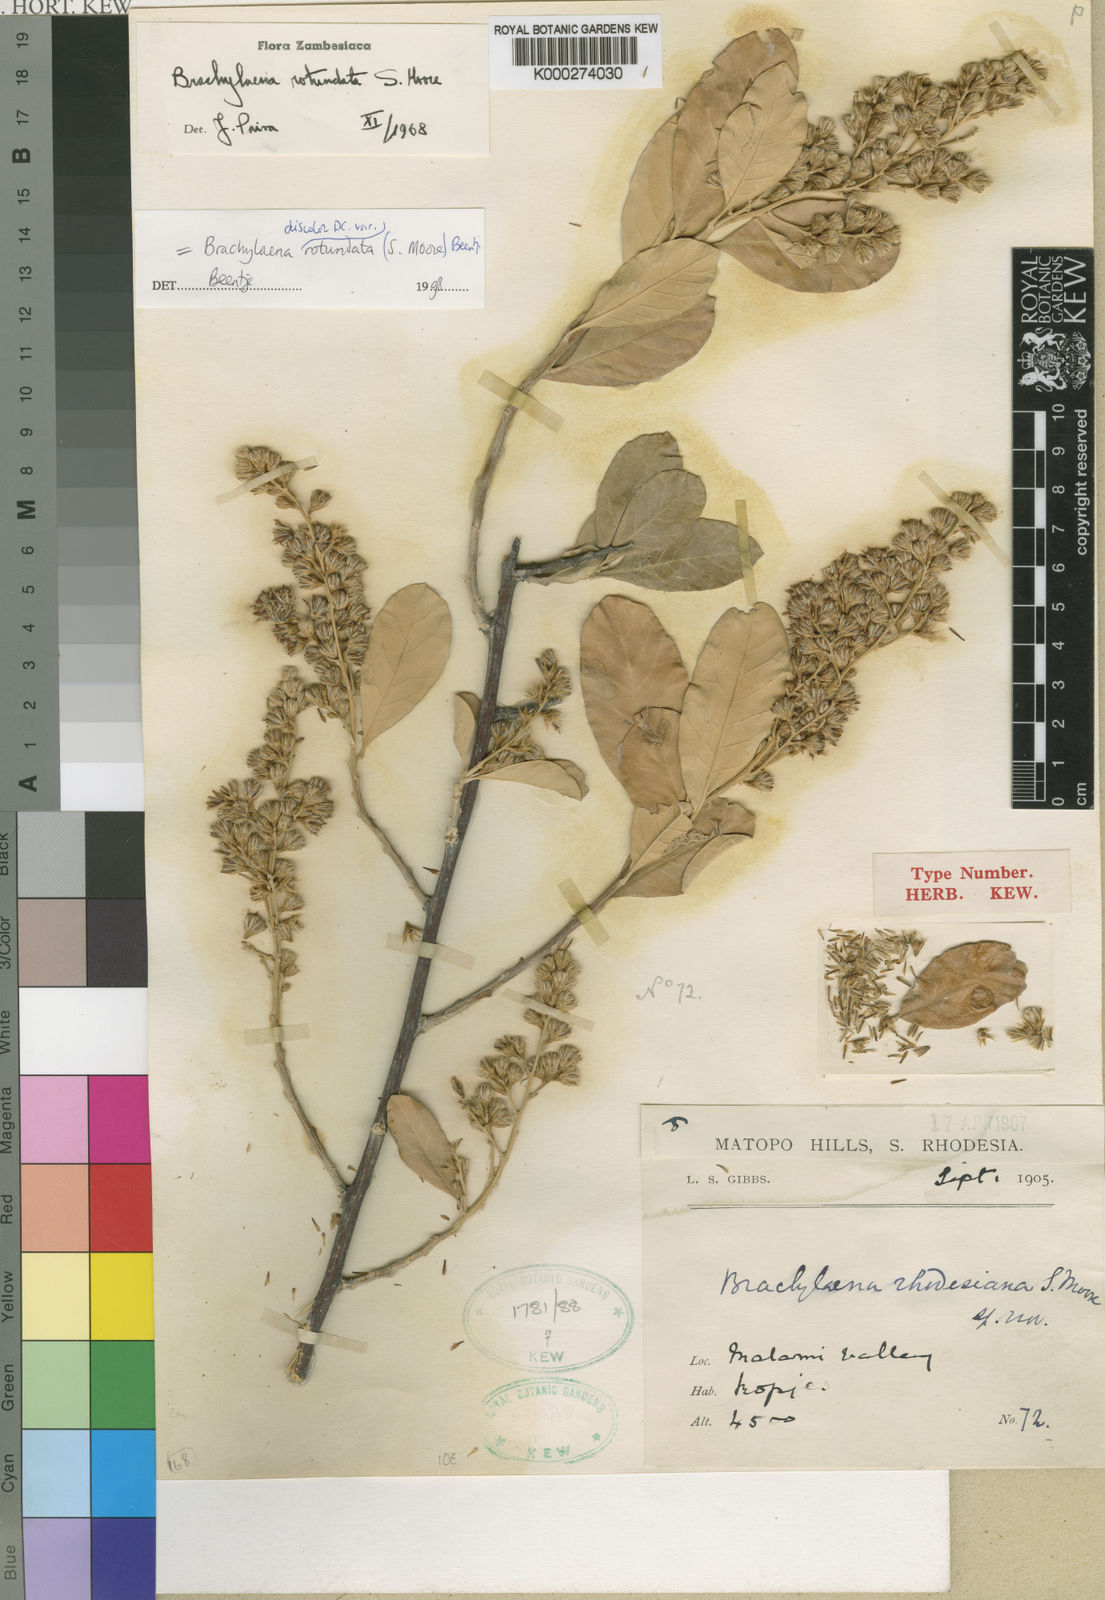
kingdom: Plantae
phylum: Tracheophyta
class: Magnoliopsida
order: Asterales
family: Asteraceae
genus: Brachylaena
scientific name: Brachylaena discolor
